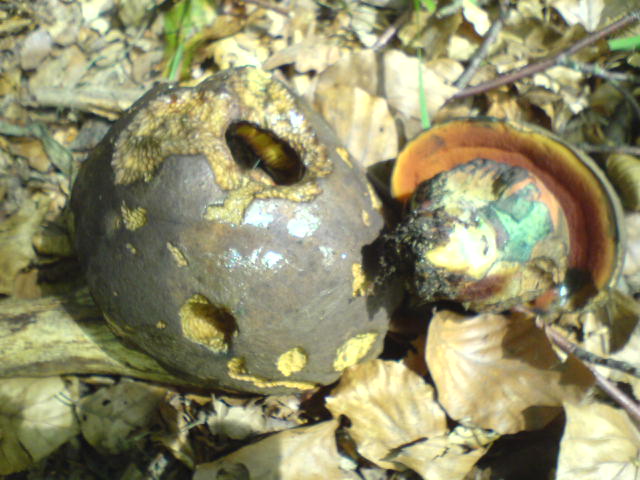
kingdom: Fungi
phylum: Basidiomycota
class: Agaricomycetes
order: Boletales
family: Boletaceae
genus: Neoboletus
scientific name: Neoboletus erythropus
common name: punktstokket indigorørhat
